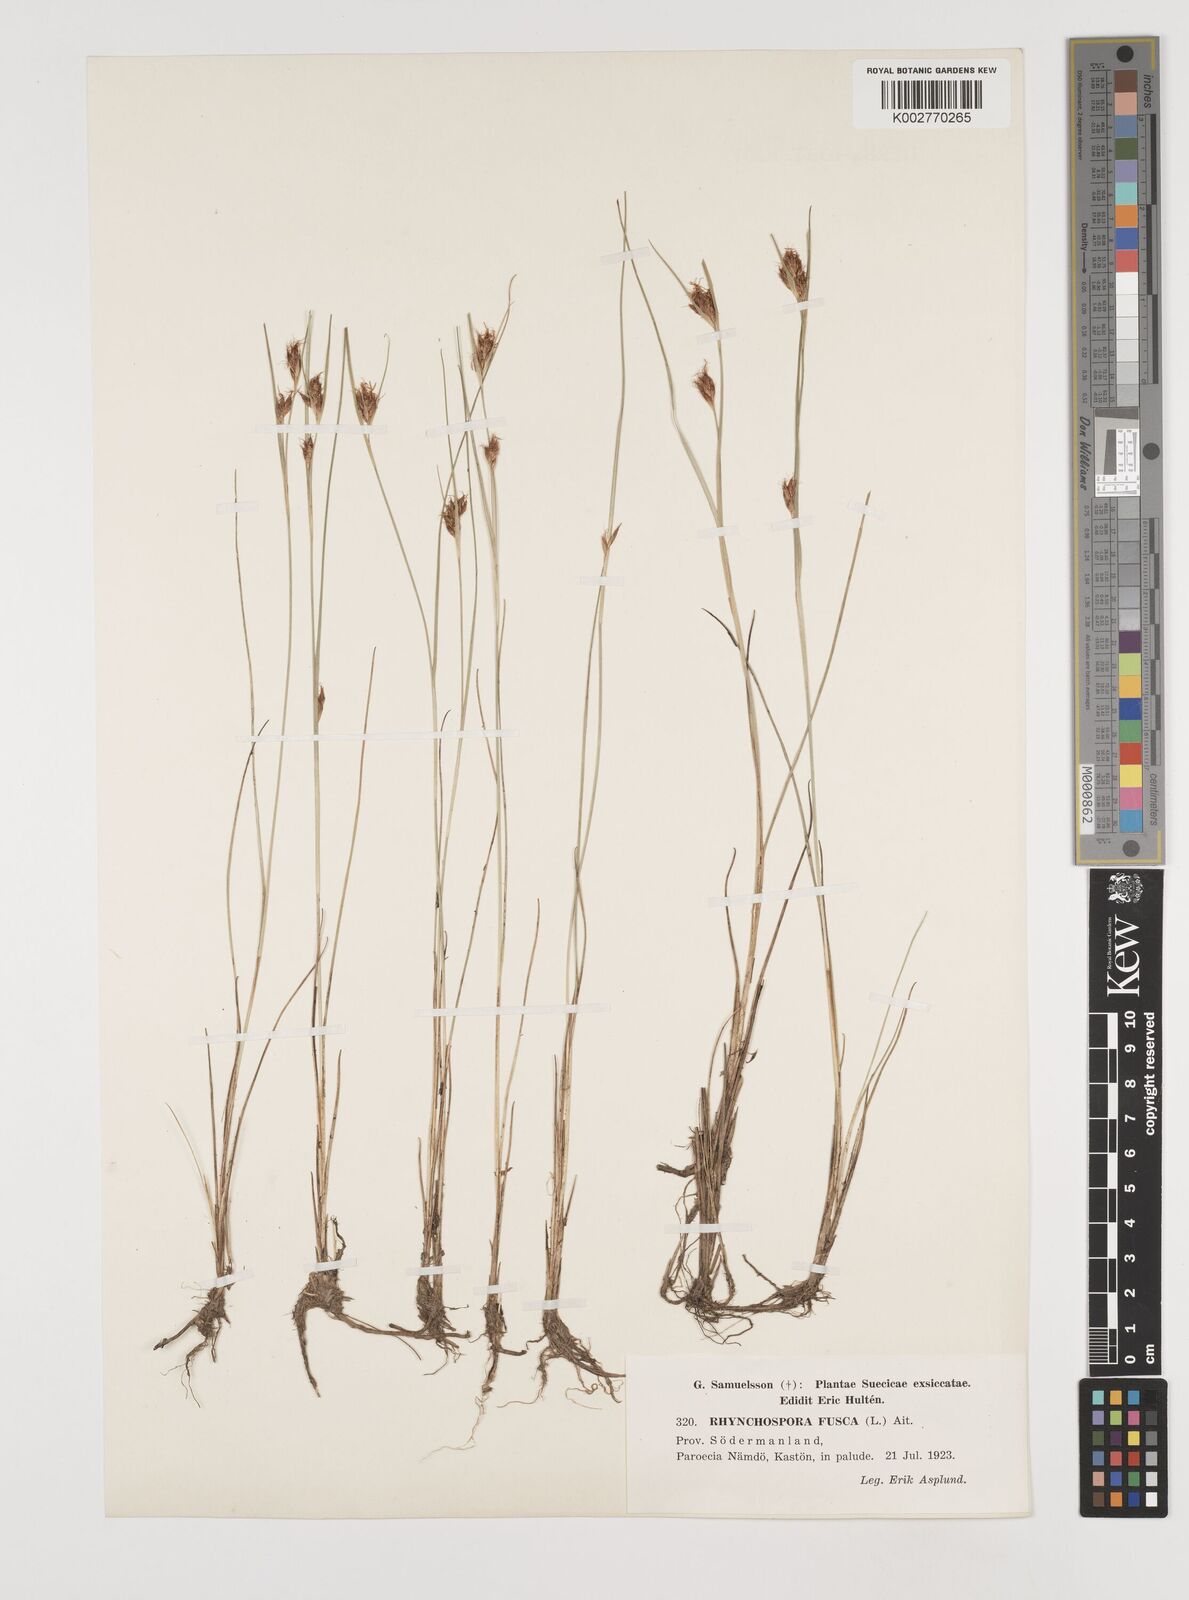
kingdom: Plantae
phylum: Tracheophyta
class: Liliopsida
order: Poales
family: Cyperaceae
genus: Rhynchospora
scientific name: Rhynchospora fusca
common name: Brown beak-sedge
